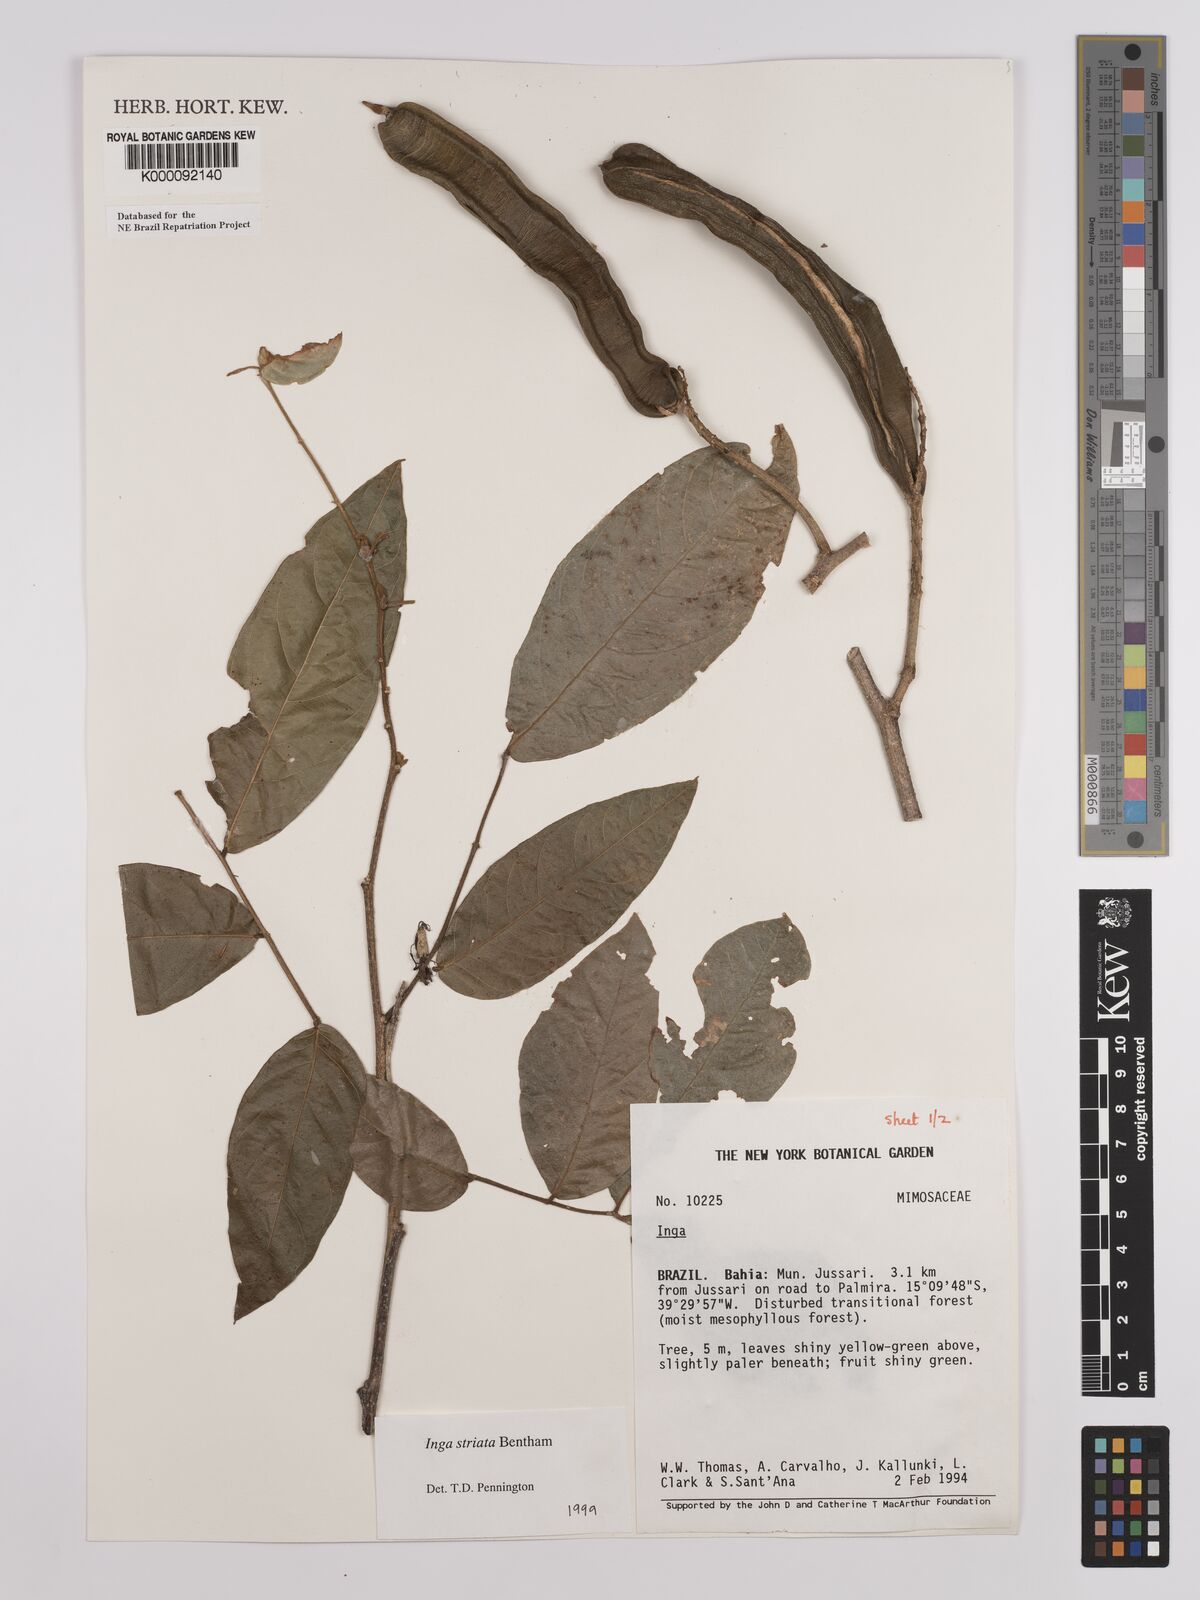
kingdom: Plantae
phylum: Tracheophyta
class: Magnoliopsida
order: Fabales
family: Fabaceae
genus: Inga
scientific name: Inga striata
